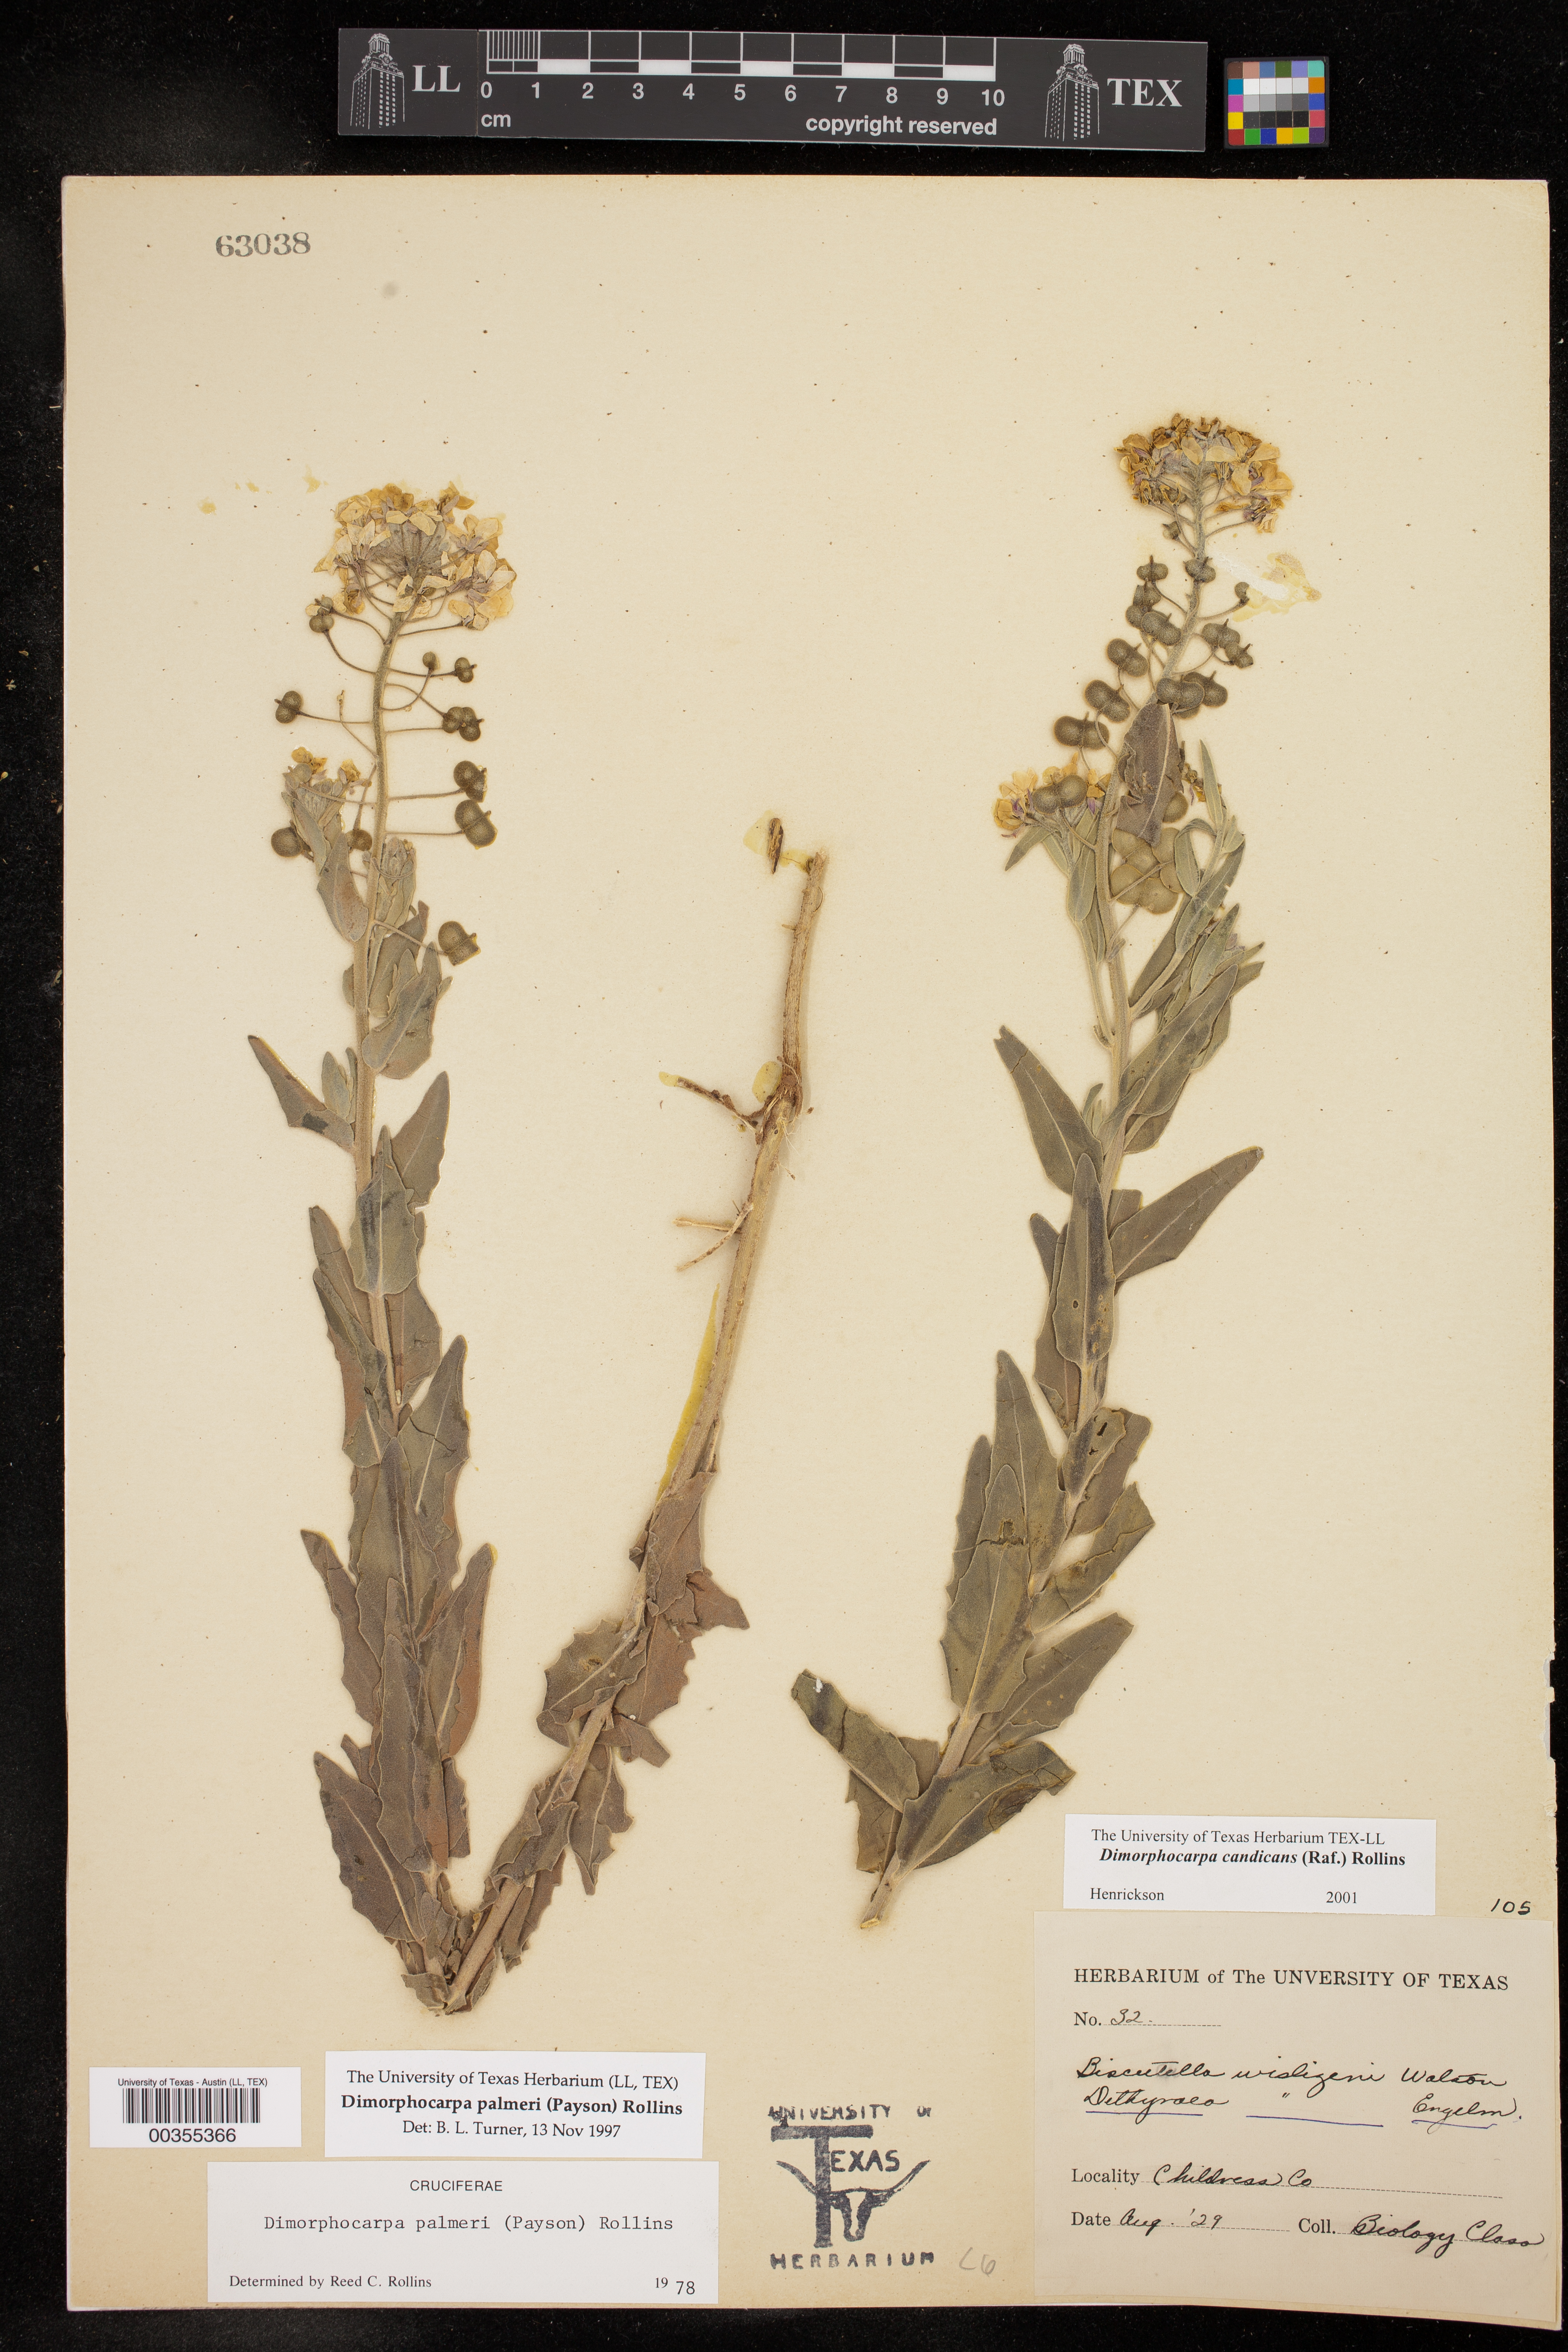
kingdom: Plantae
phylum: Tracheophyta
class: Magnoliopsida
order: Brassicales
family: Brassicaceae
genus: Dimorphocarpa
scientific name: Dimorphocarpa candicans
